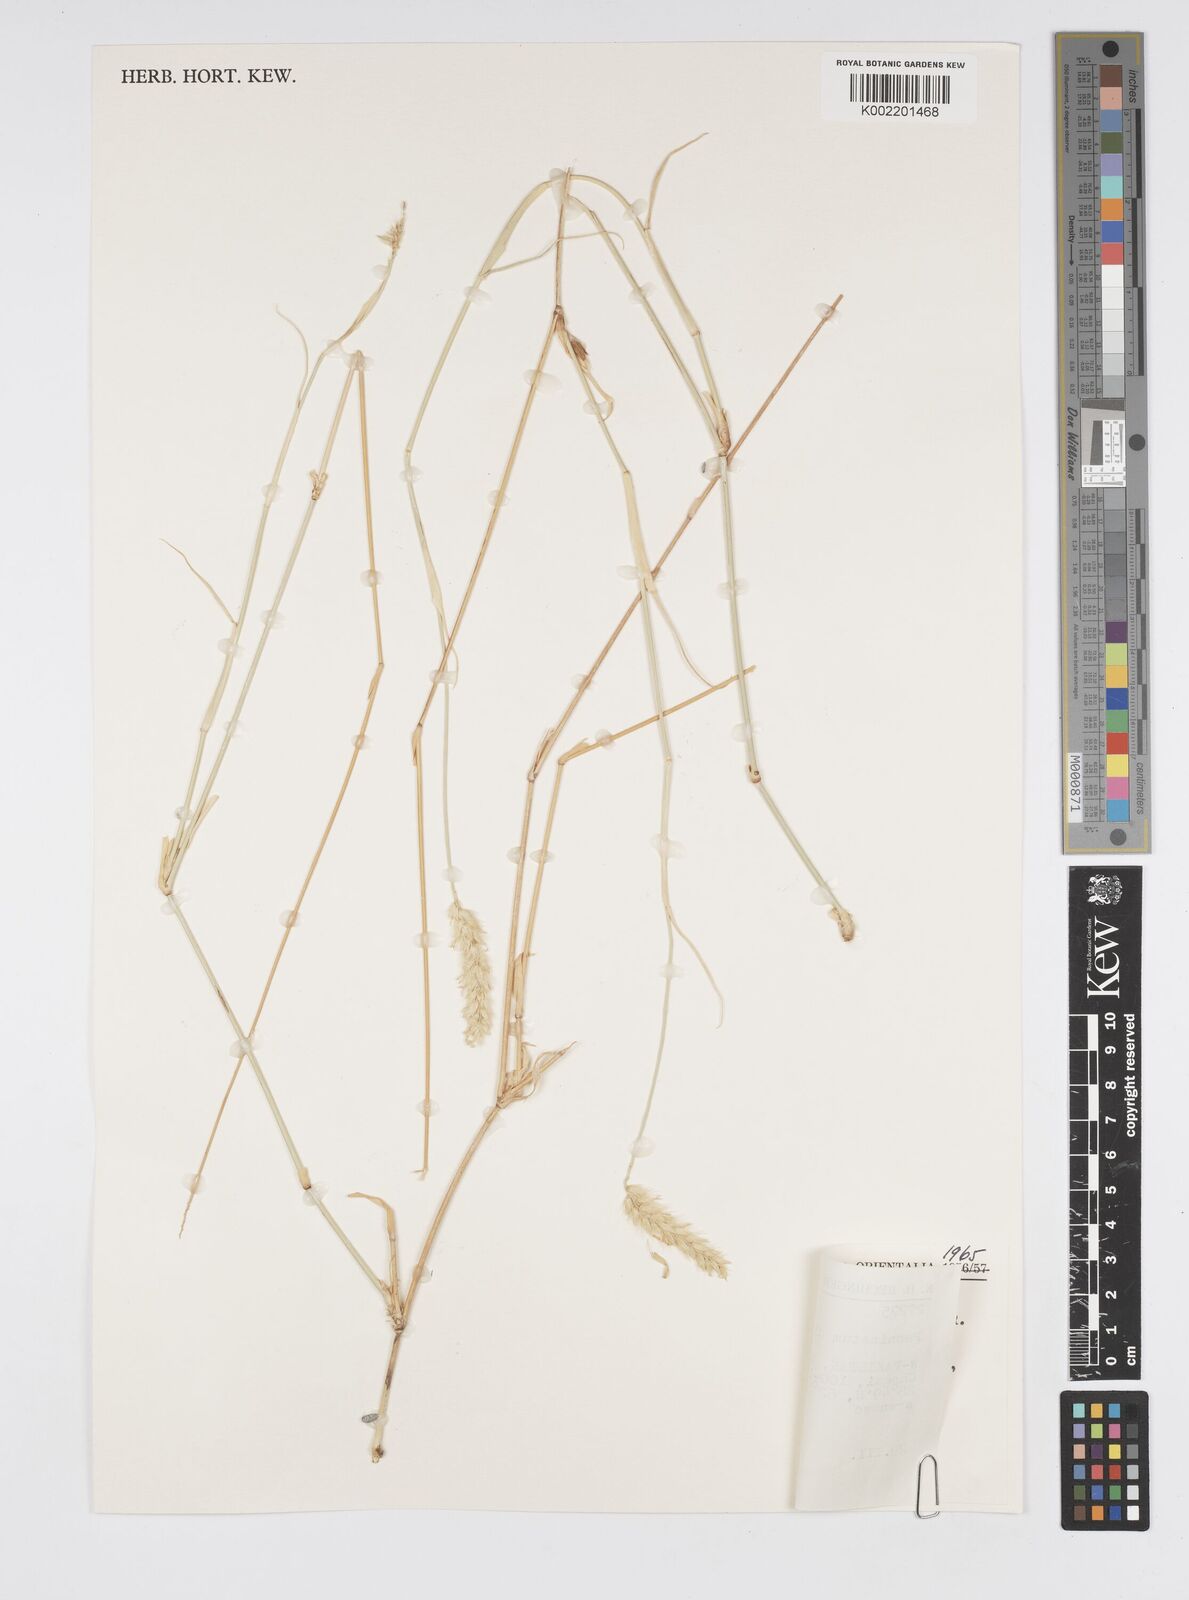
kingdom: Plantae
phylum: Tracheophyta
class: Liliopsida
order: Poales
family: Poaceae
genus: Cenchrus
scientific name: Cenchrus divisus
